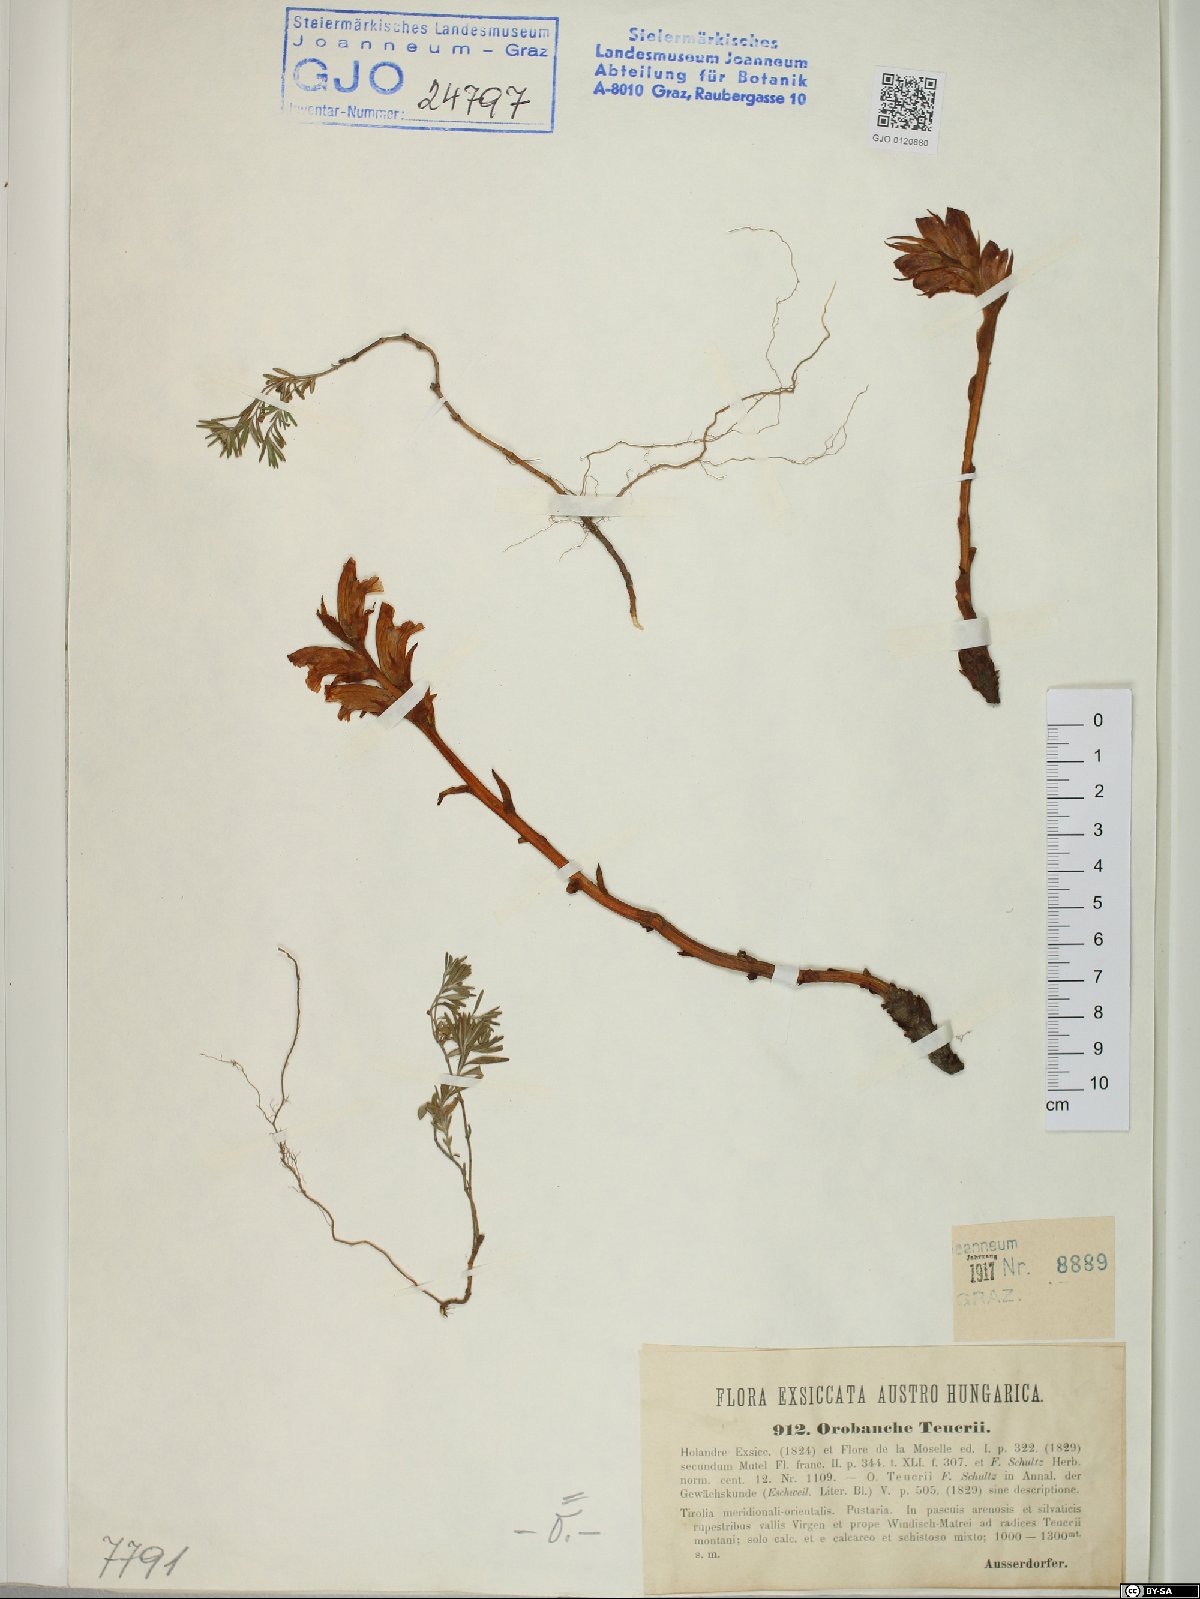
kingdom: Plantae
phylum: Tracheophyta
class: Magnoliopsida
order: Lamiales
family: Orobanchaceae
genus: Orobanche
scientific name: Orobanche teucrii
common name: Germander broomrape
